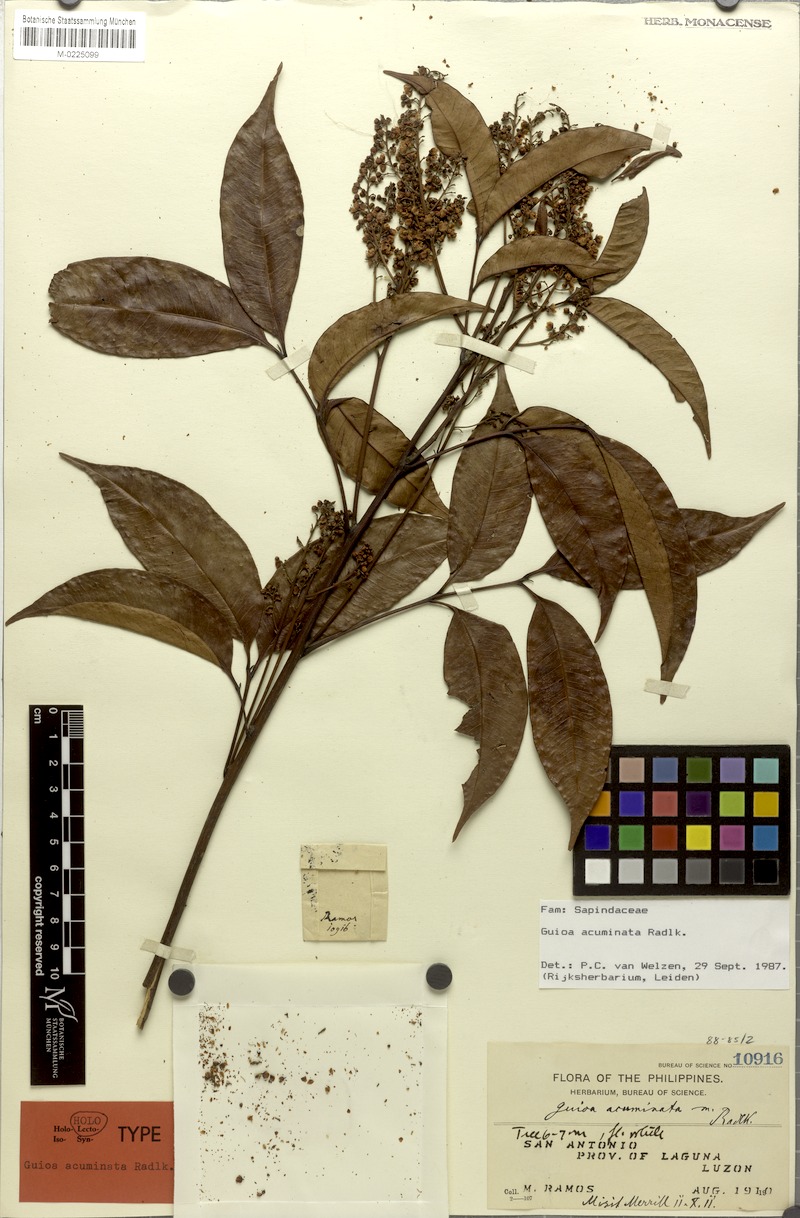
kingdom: Plantae
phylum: Tracheophyta
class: Magnoliopsida
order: Sapindales
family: Sapindaceae
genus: Guioa
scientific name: Guioa acuminata
